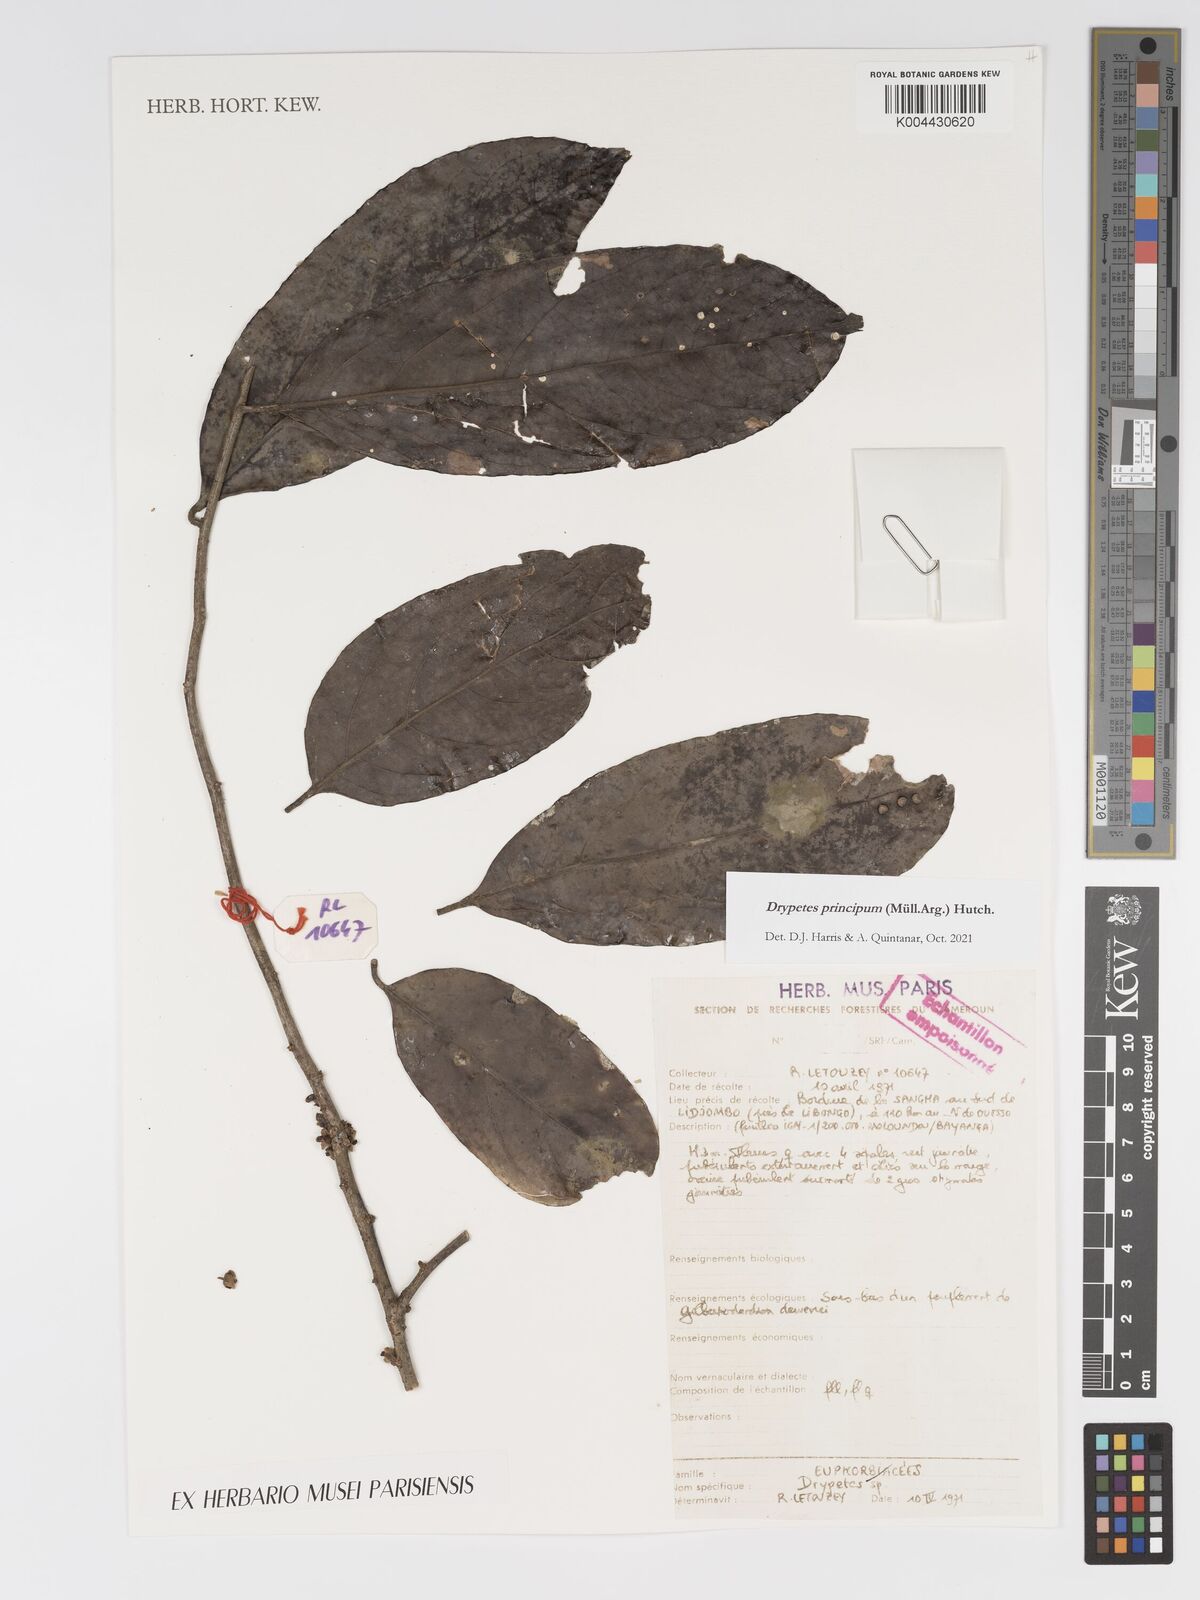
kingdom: Plantae
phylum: Tracheophyta
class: Magnoliopsida
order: Malpighiales
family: Putranjivaceae
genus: Drypetes
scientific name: Drypetes principum
